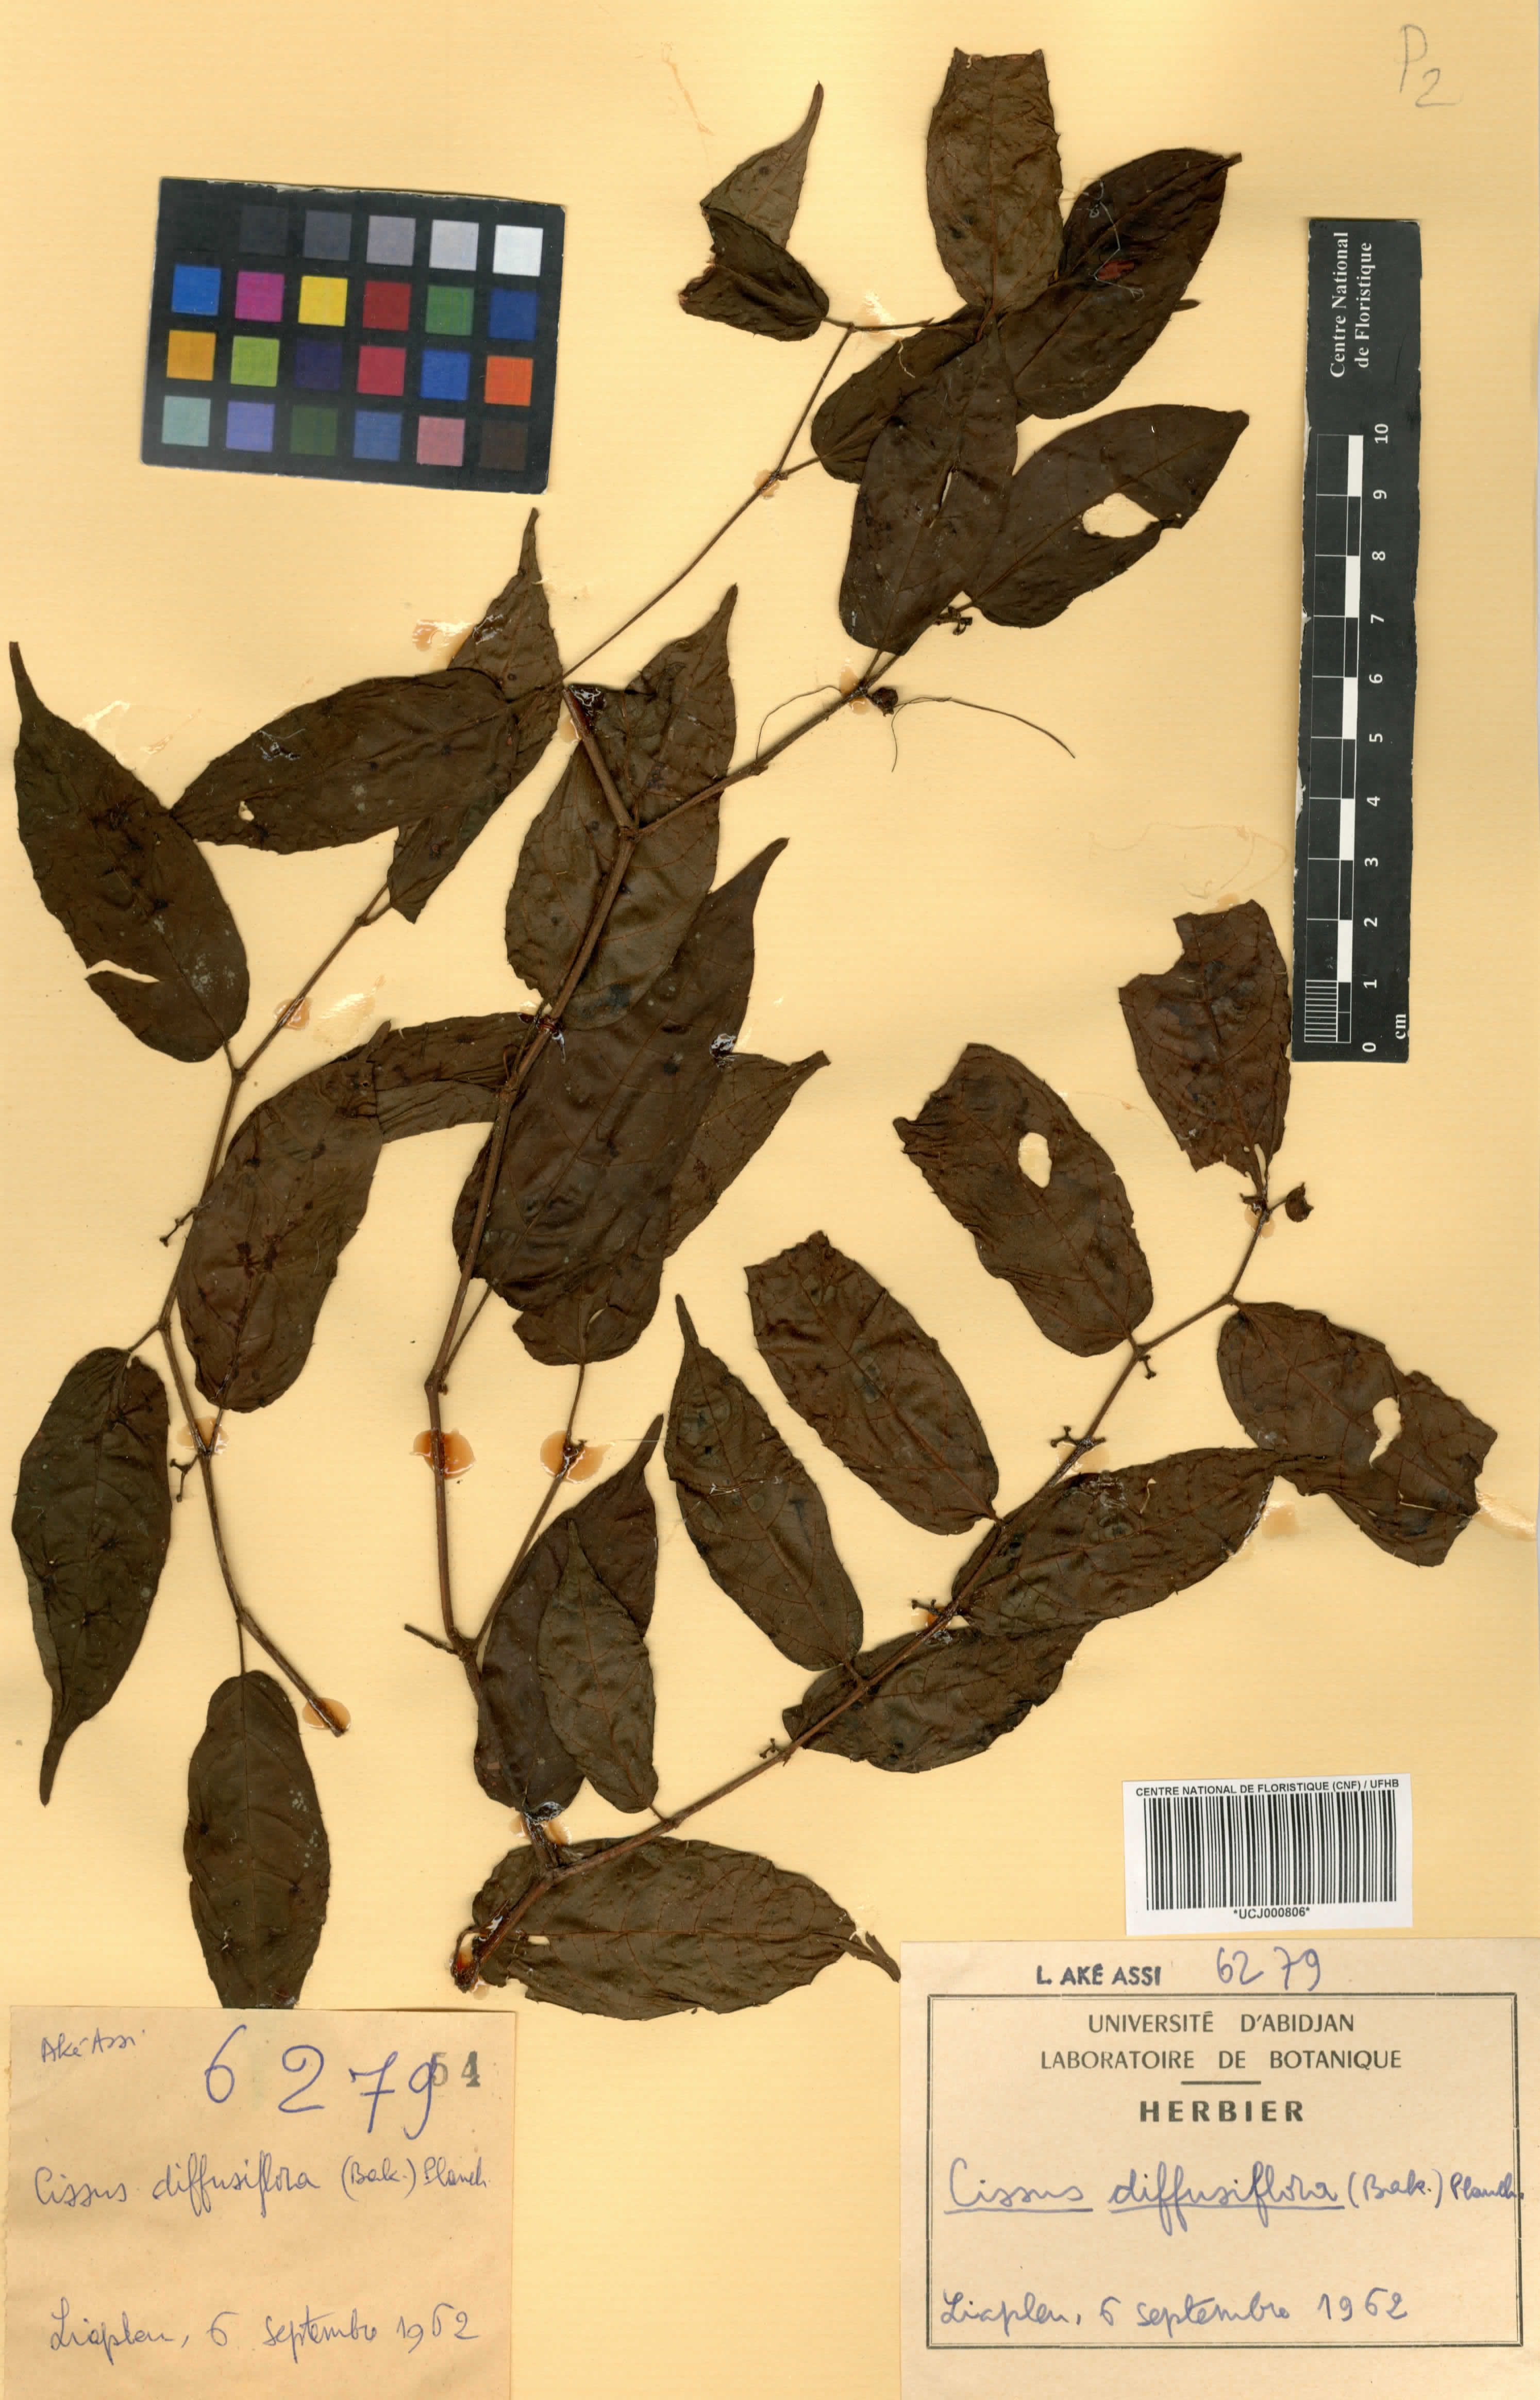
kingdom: Plantae
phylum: Tracheophyta
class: Magnoliopsida
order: Vitales
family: Vitaceae
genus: Cissus
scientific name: Cissus diffusiflora
